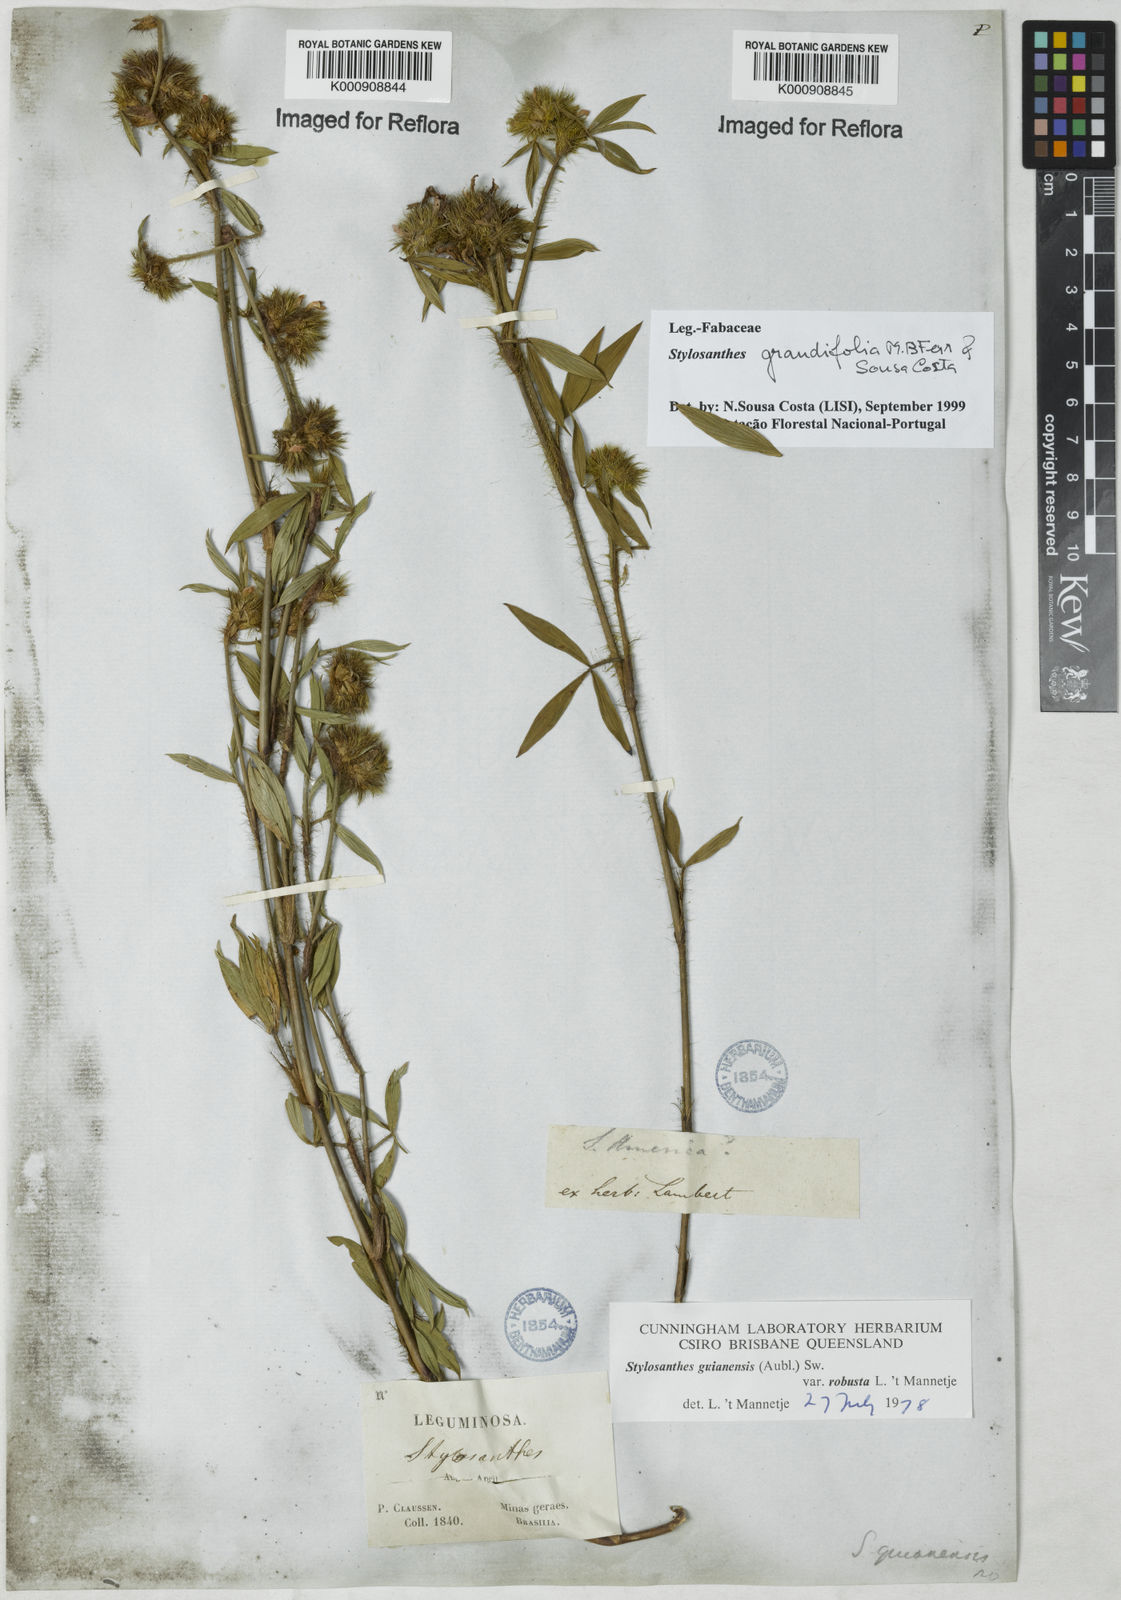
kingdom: Plantae
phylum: Tracheophyta
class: Magnoliopsida
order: Fabales
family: Fabaceae
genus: Stylosanthes
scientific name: Stylosanthes guianensis
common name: Pencil flower
